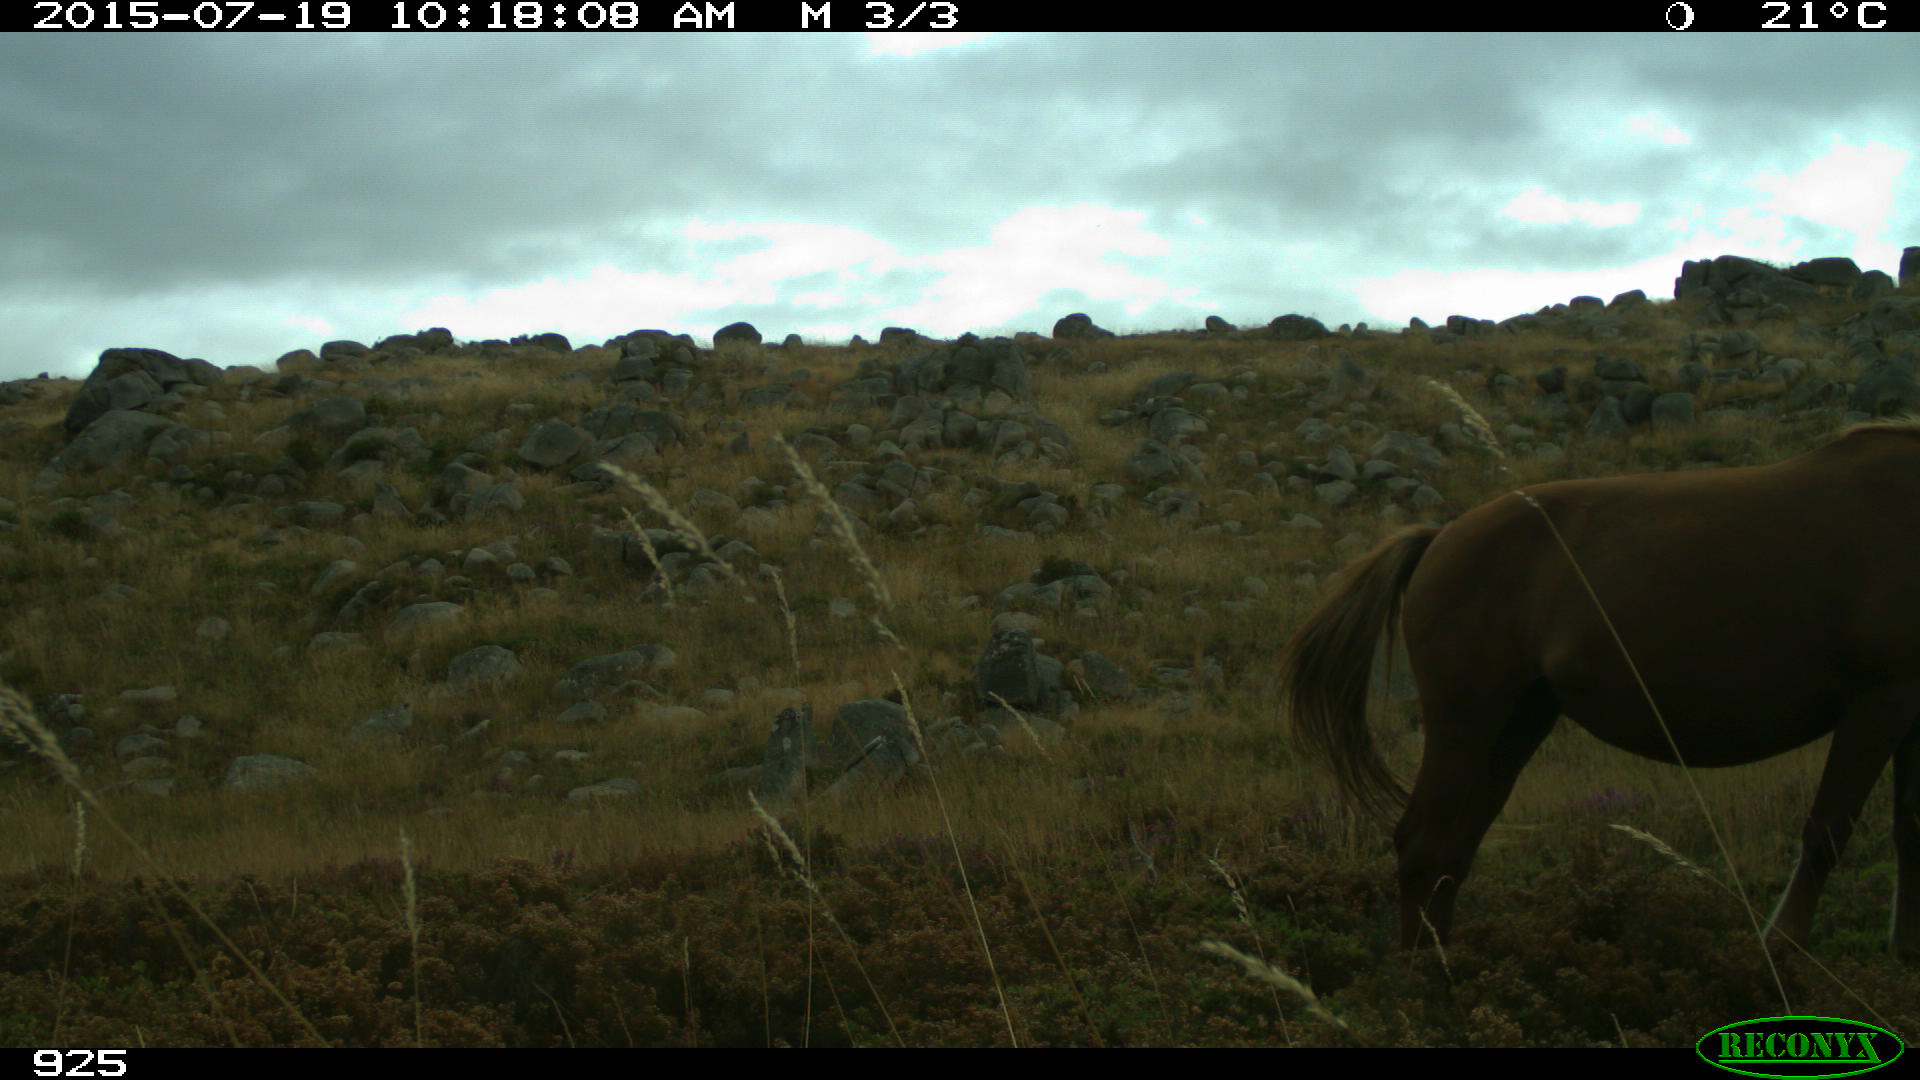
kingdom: Animalia
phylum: Chordata
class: Mammalia
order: Perissodactyla
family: Equidae
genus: Equus
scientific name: Equus caballus
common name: Horse
